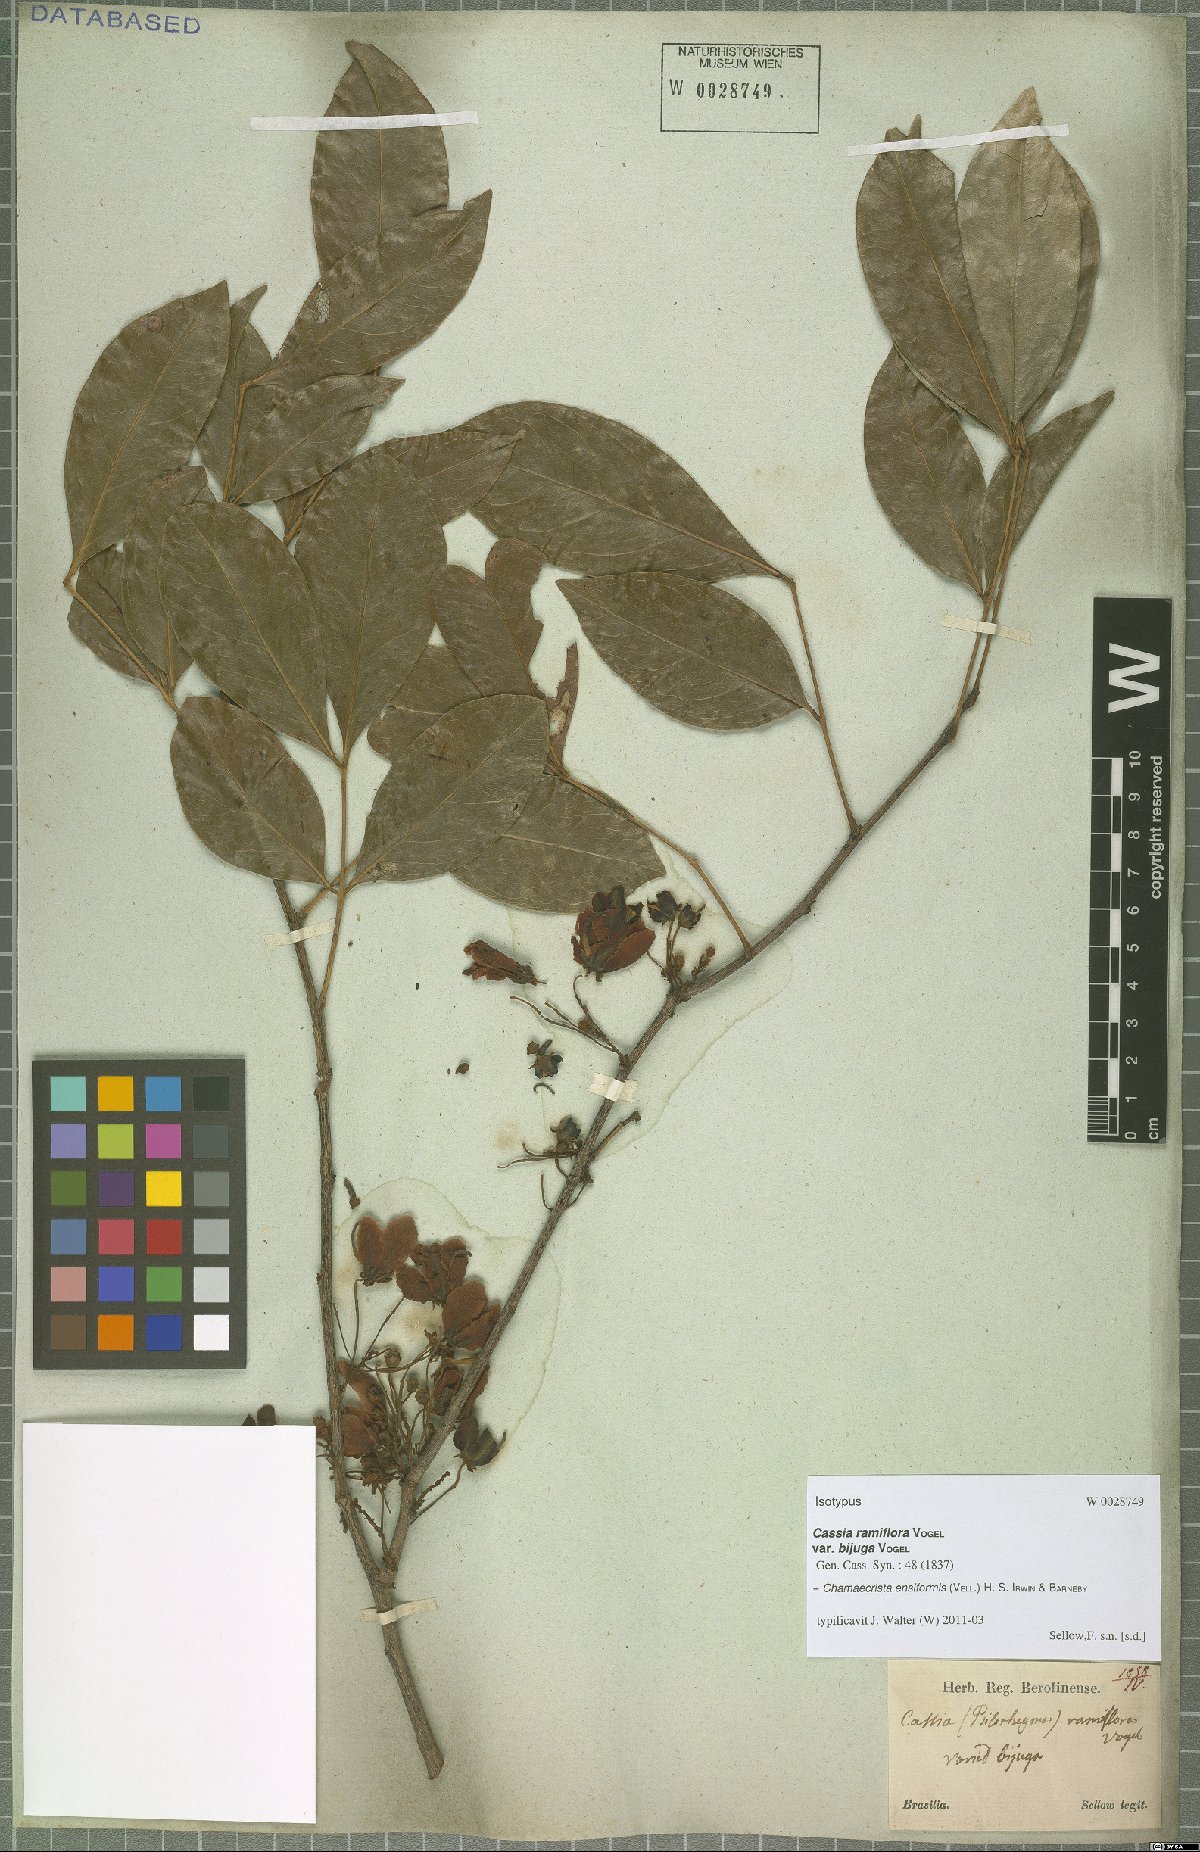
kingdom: Plantae
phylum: Tracheophyta
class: Magnoliopsida
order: Fabales
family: Fabaceae
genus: Chamaecrista
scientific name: Chamaecrista ensiformis
